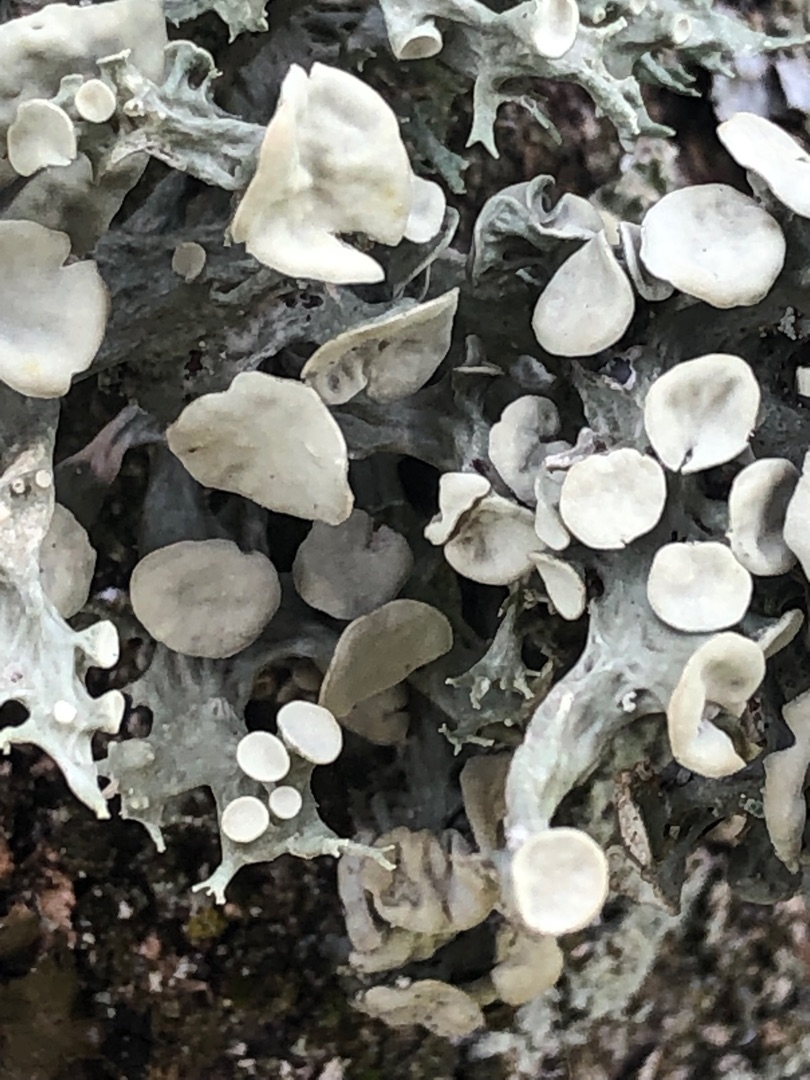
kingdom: Fungi
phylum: Ascomycota
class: Lecanoromycetes
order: Lecanorales
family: Ramalinaceae
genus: Ramalina
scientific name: Ramalina fastigiata
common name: Tue-grenlav
